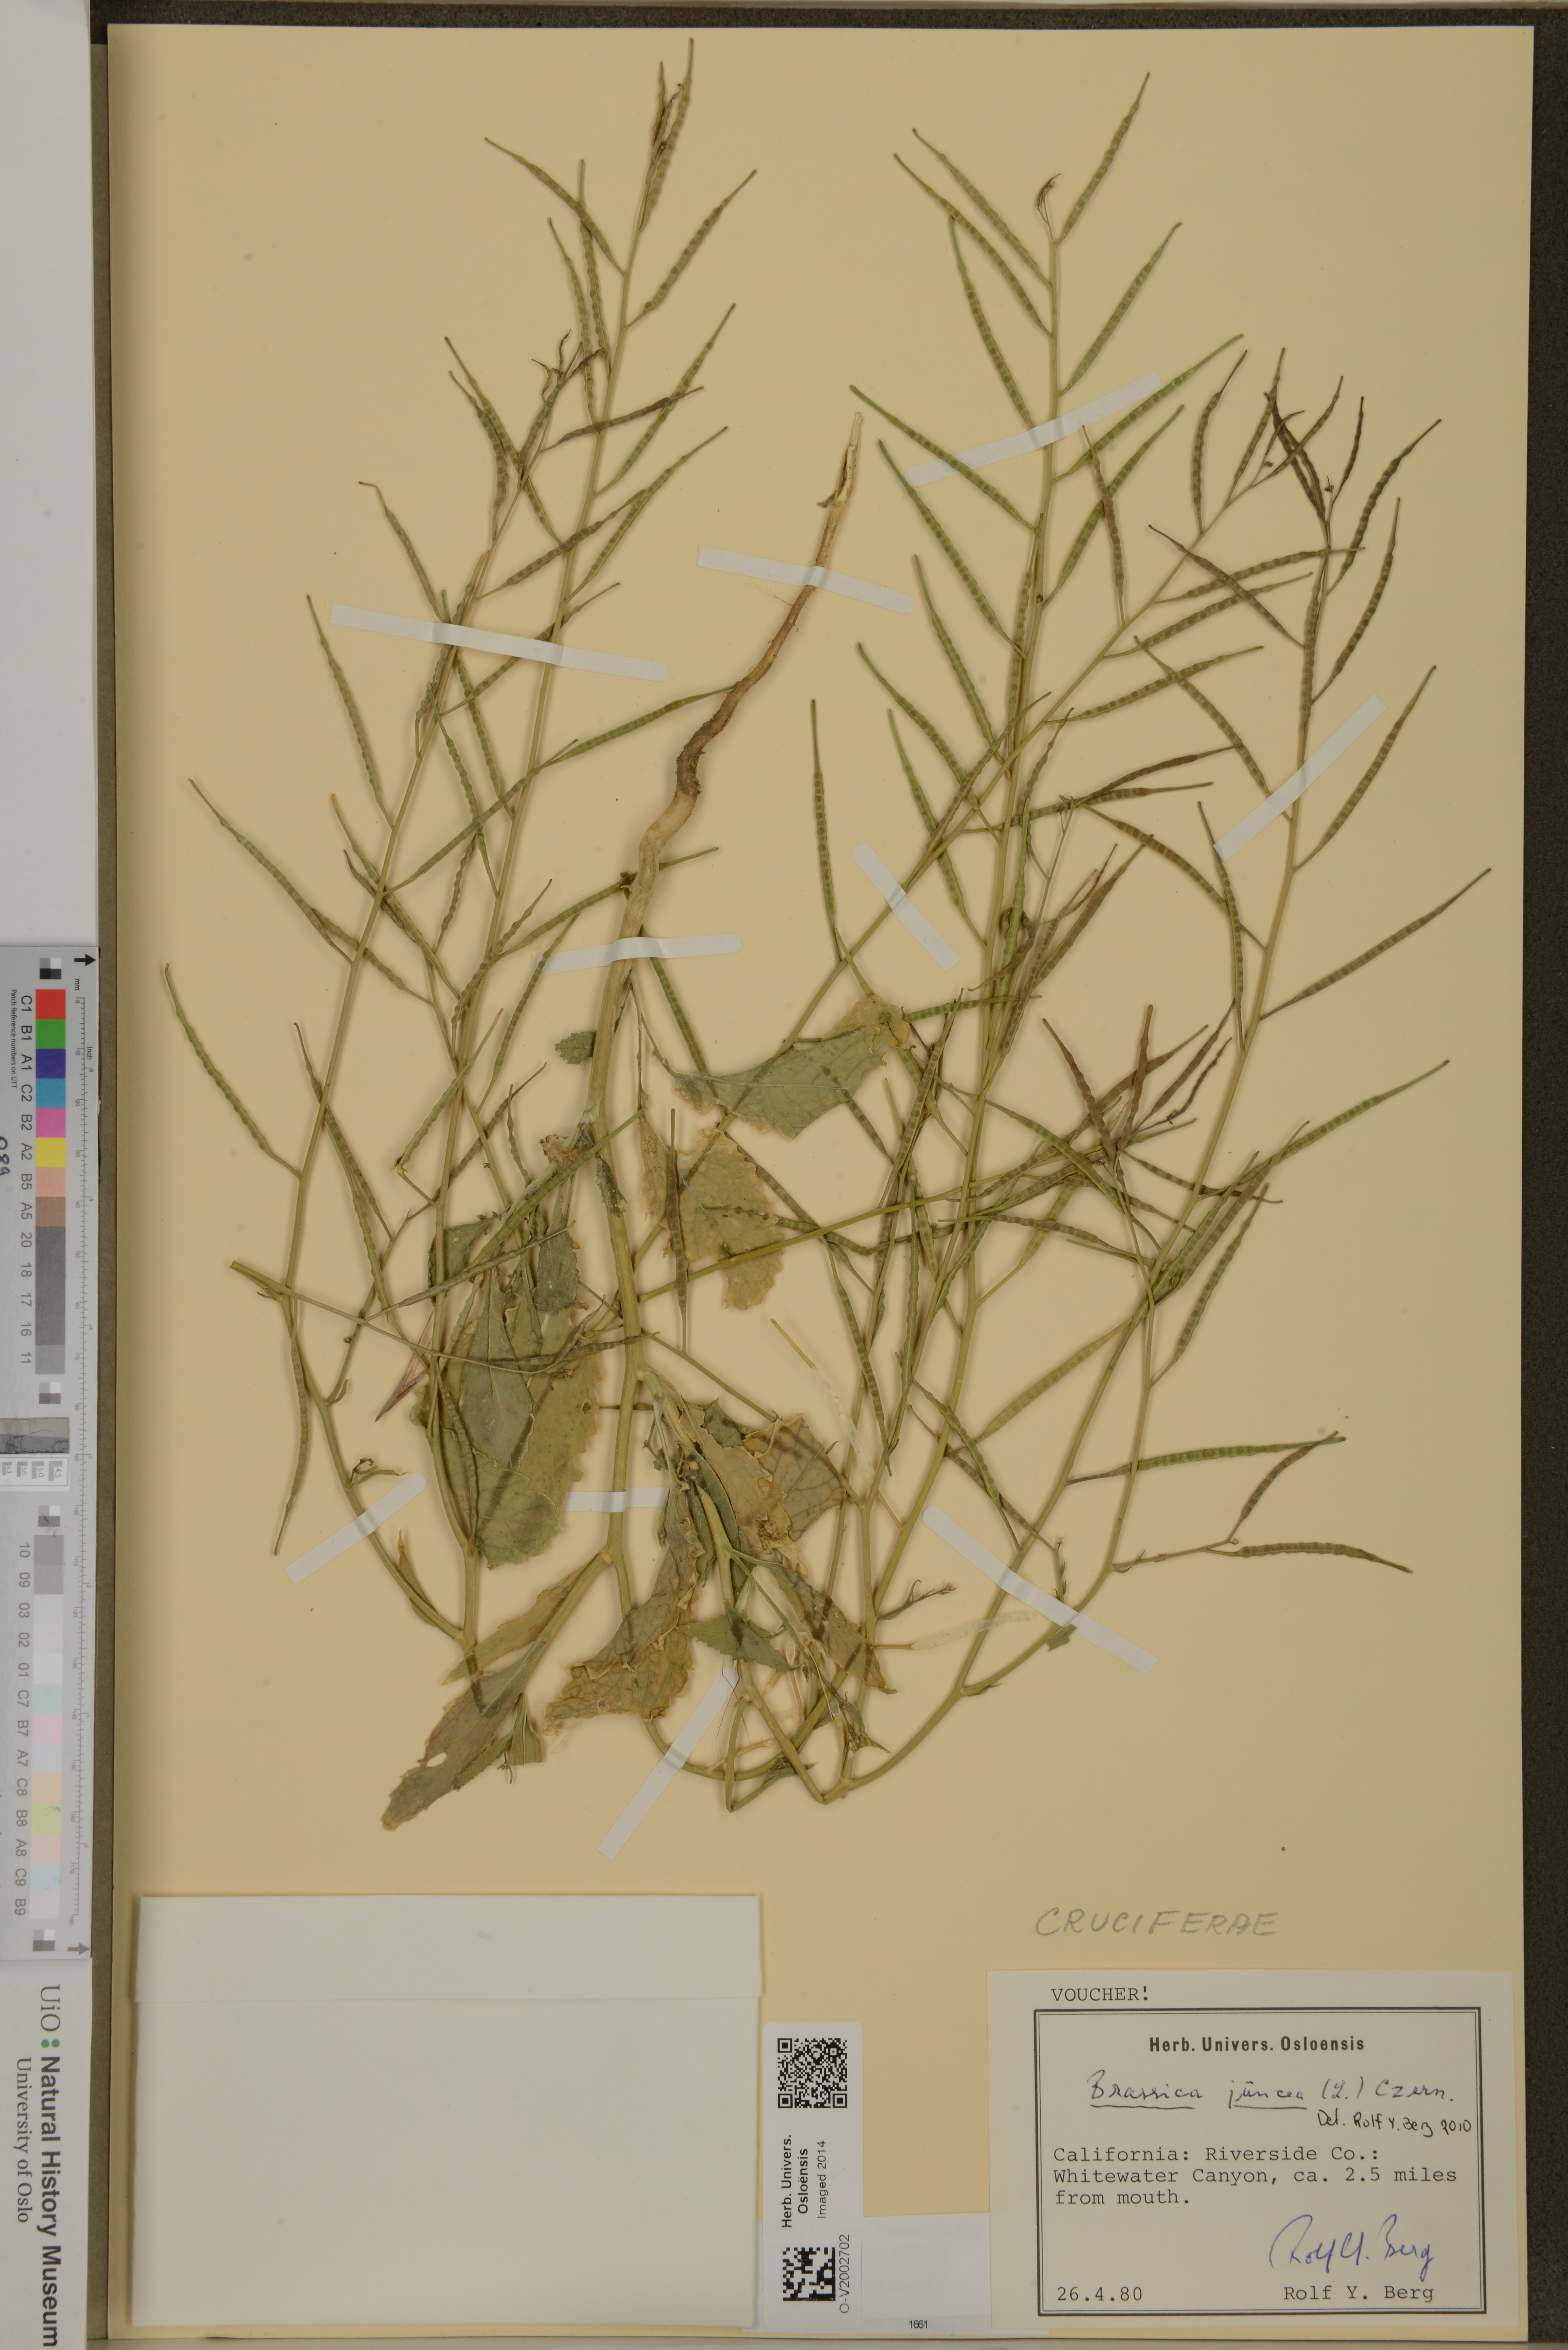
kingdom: Plantae
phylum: Tracheophyta
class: Magnoliopsida
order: Brassicales
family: Brassicaceae
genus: Brassica
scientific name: Brassica juncea
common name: Brown mustard
